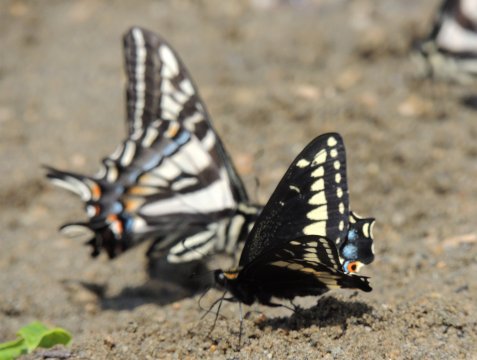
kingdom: Animalia
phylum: Arthropoda
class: Insecta
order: Lepidoptera
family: Papilionidae
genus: Papilio
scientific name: Papilio indra
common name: Indra Swallowtail
